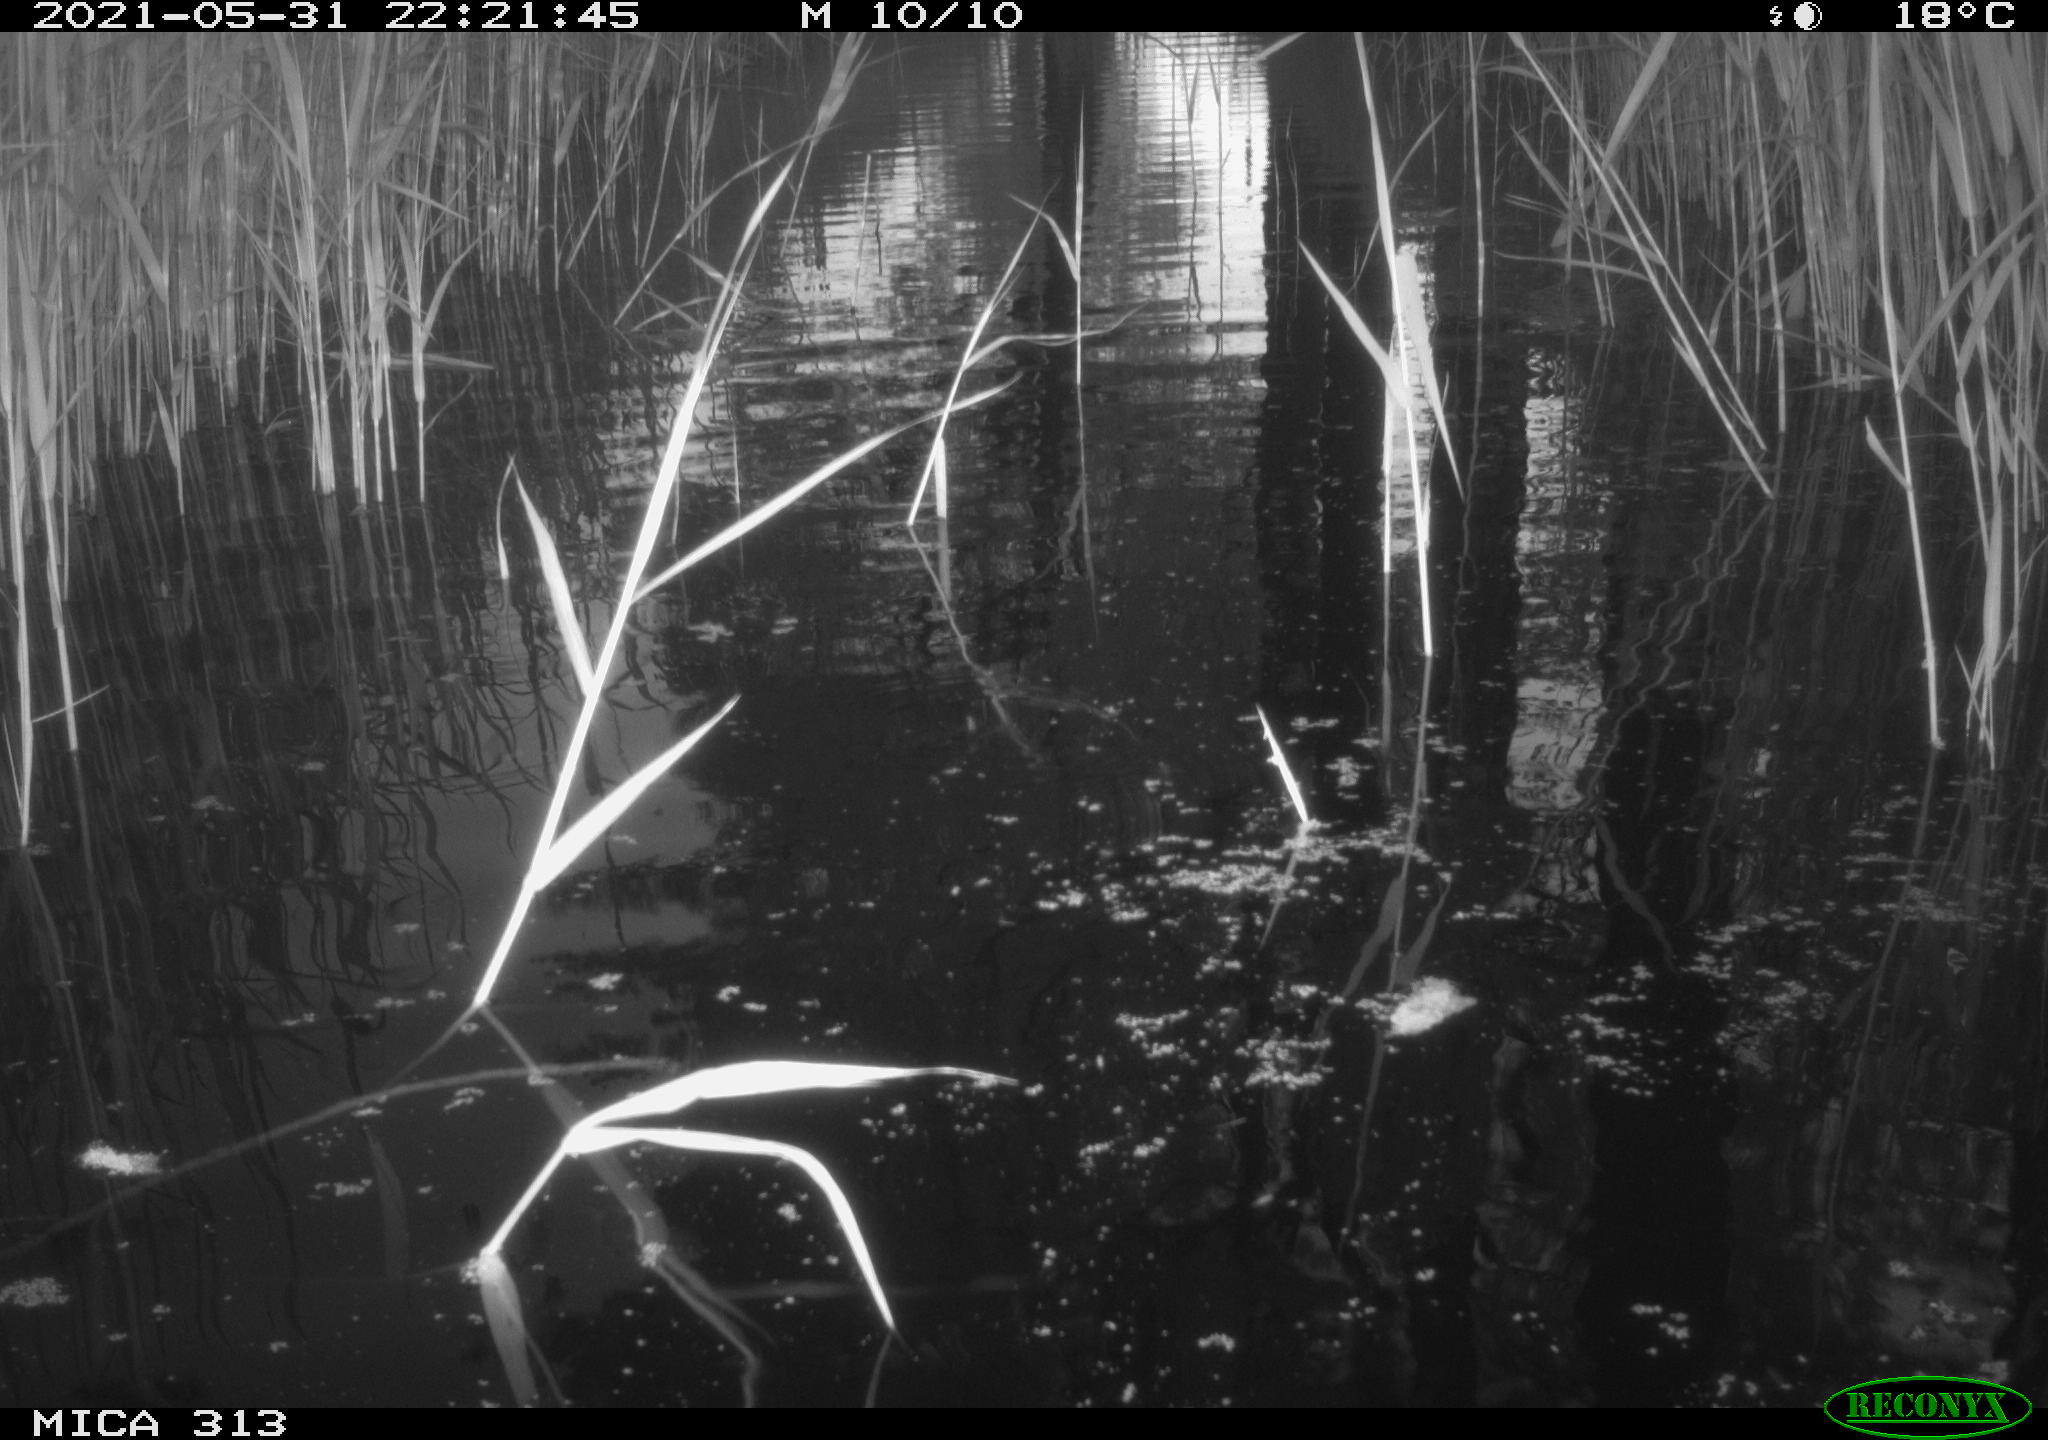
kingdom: Animalia
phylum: Chordata
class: Aves
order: Anseriformes
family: Anatidae
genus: Anas
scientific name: Anas platyrhynchos
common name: Mallard
